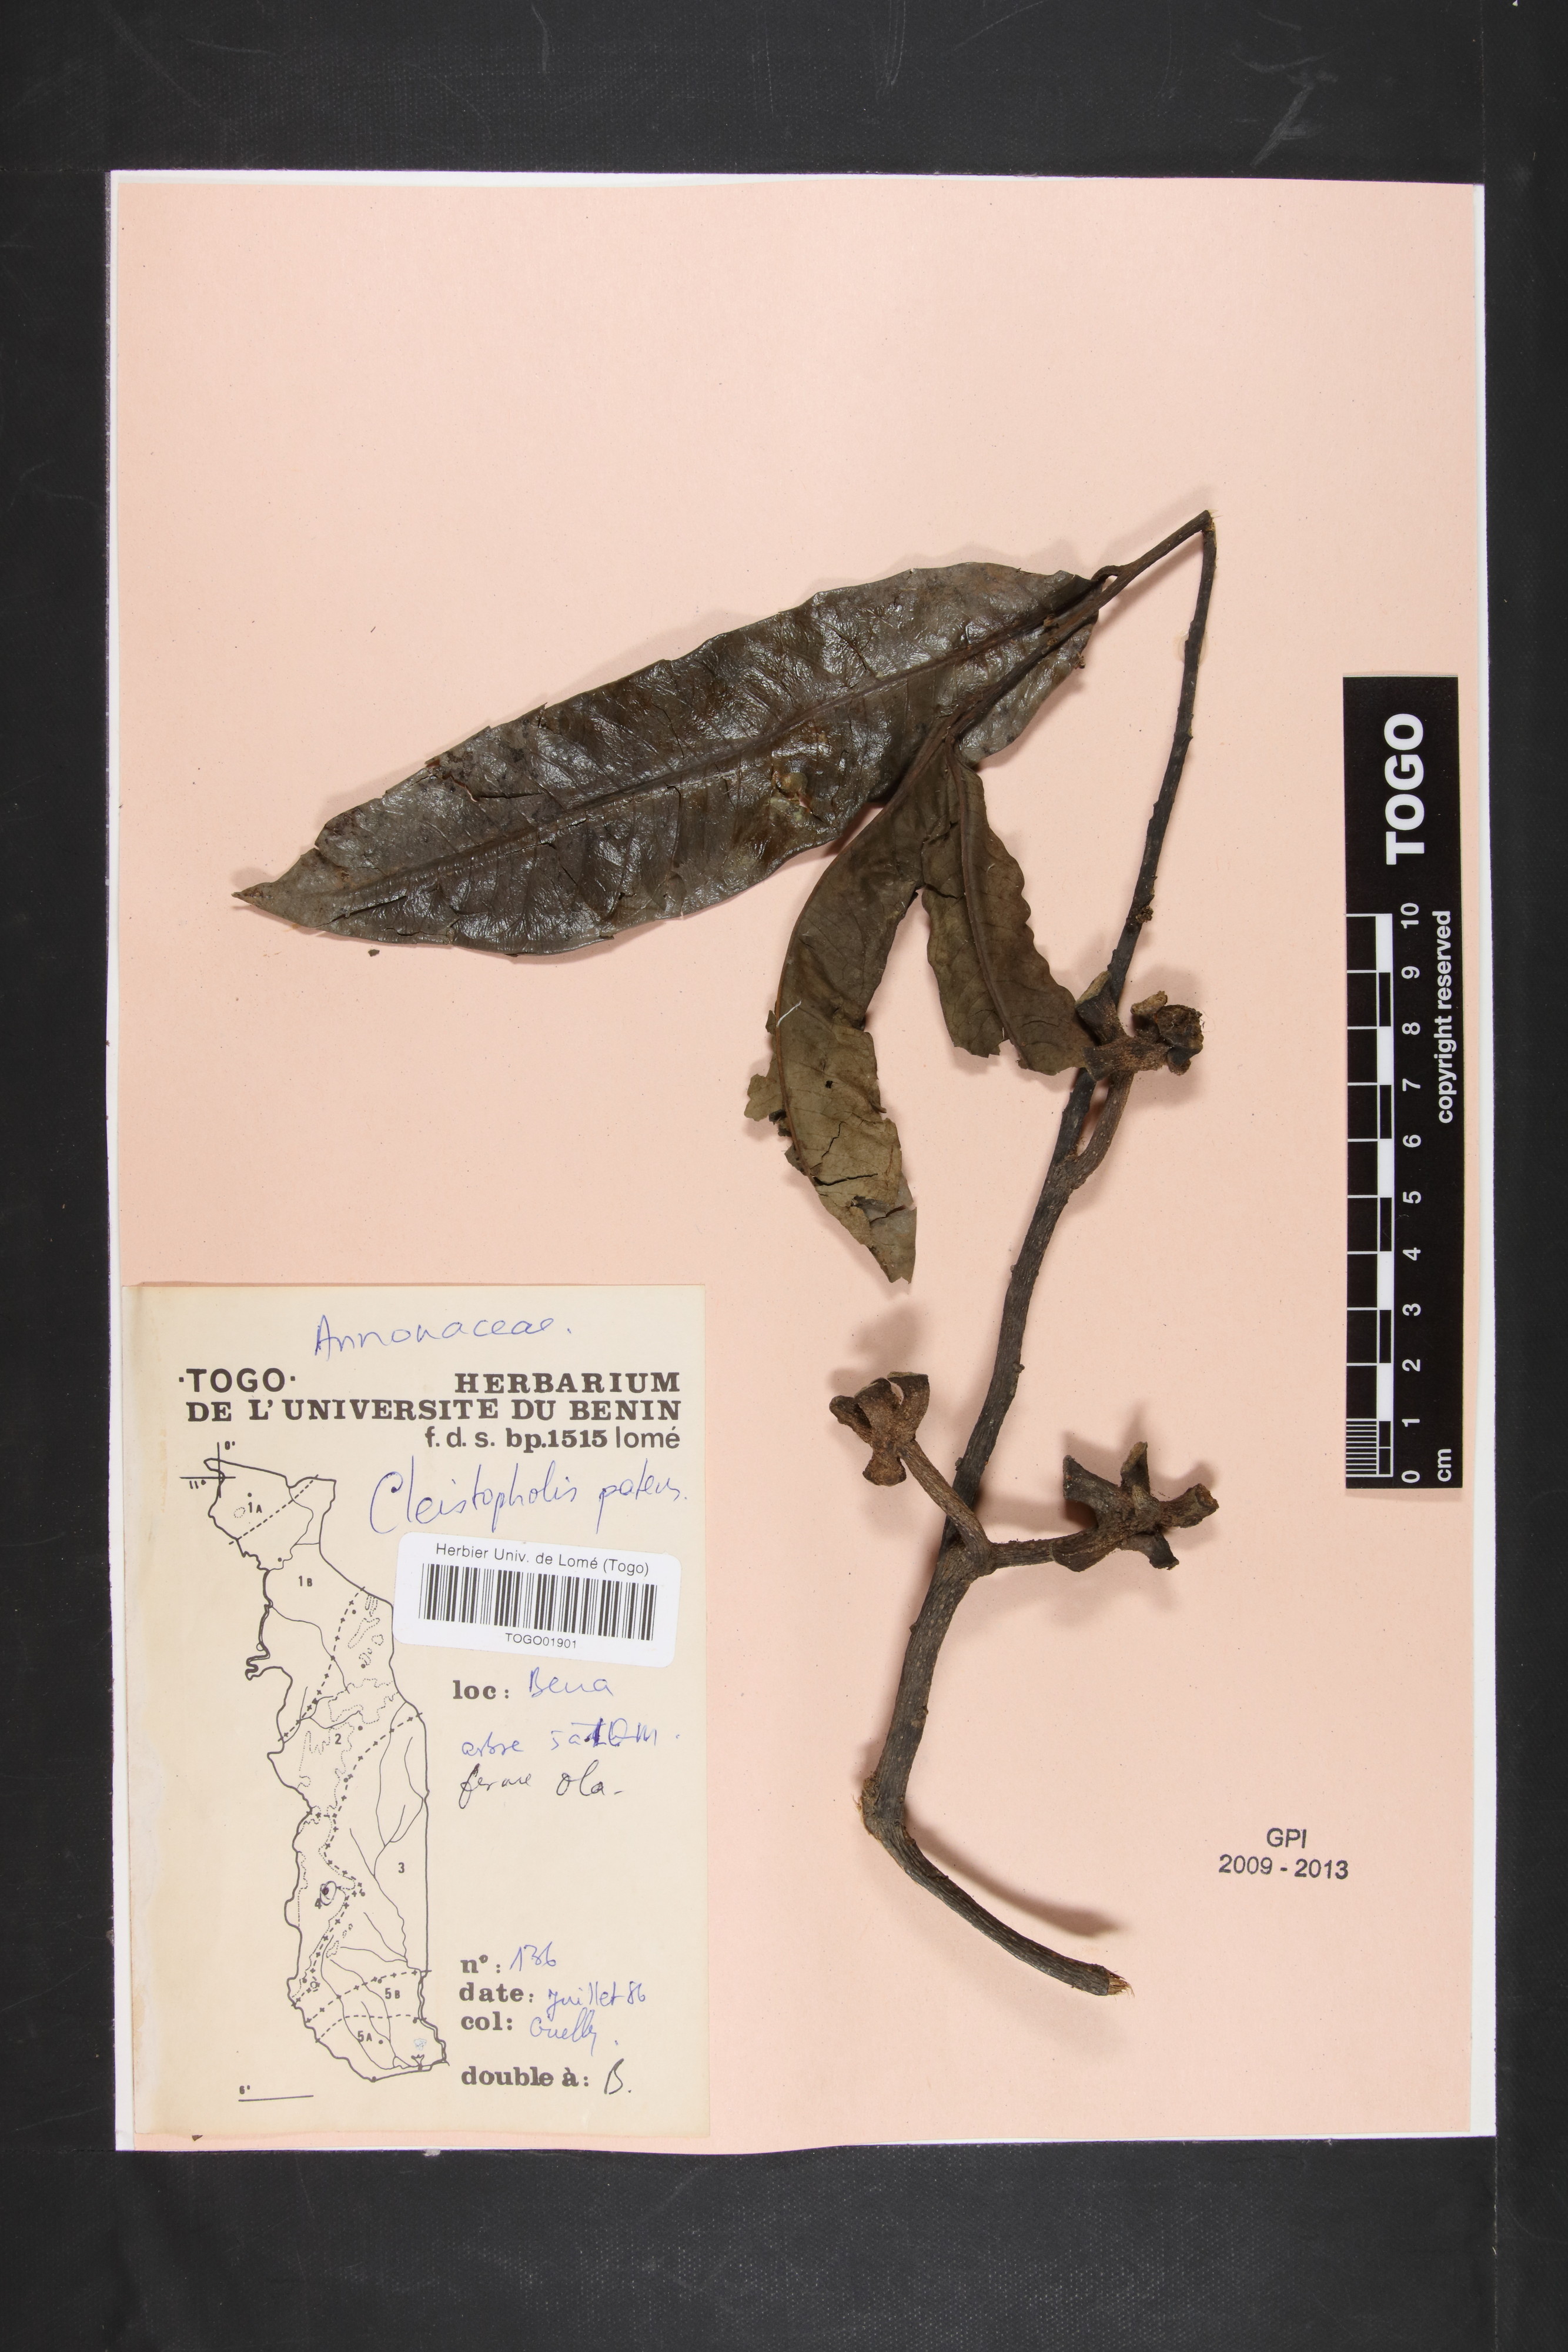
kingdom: Plantae
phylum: Tracheophyta
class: Magnoliopsida
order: Magnoliales
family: Annonaceae
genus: Cleistopholis
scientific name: Cleistopholis patens
